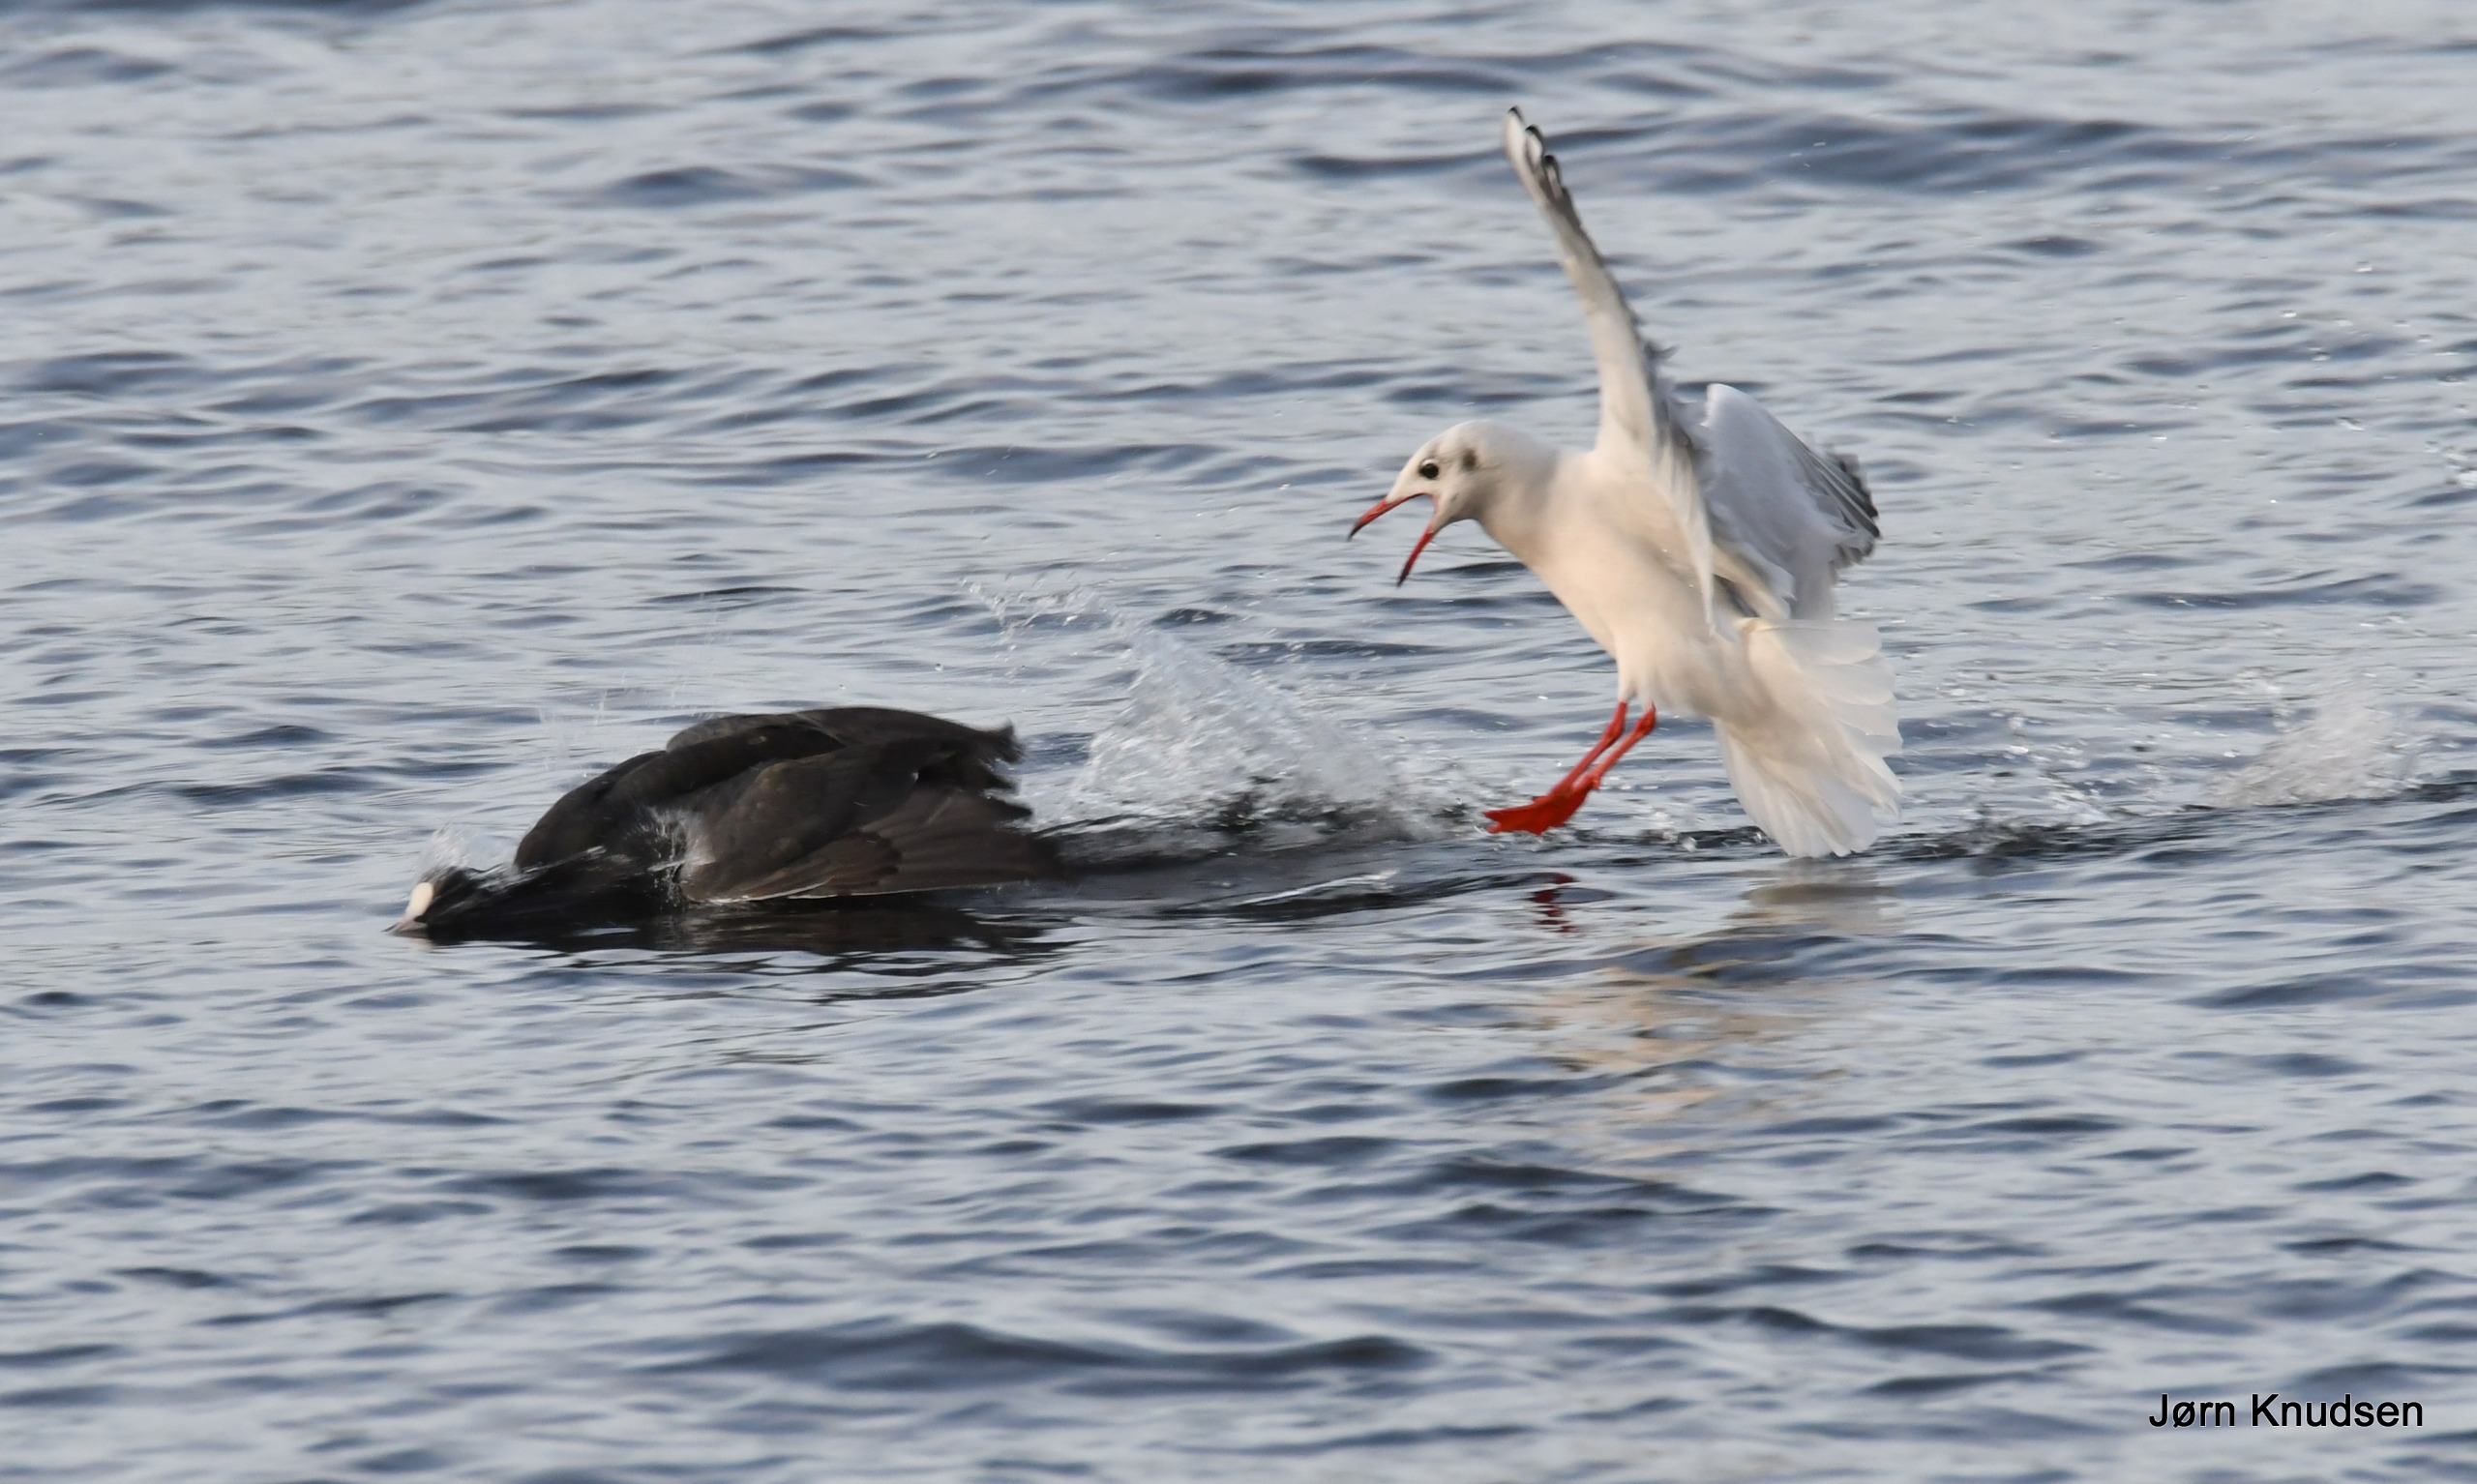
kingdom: Animalia
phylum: Chordata
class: Aves
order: Charadriiformes
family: Laridae
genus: Chroicocephalus
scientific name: Chroicocephalus ridibundus
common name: Hættemåge
